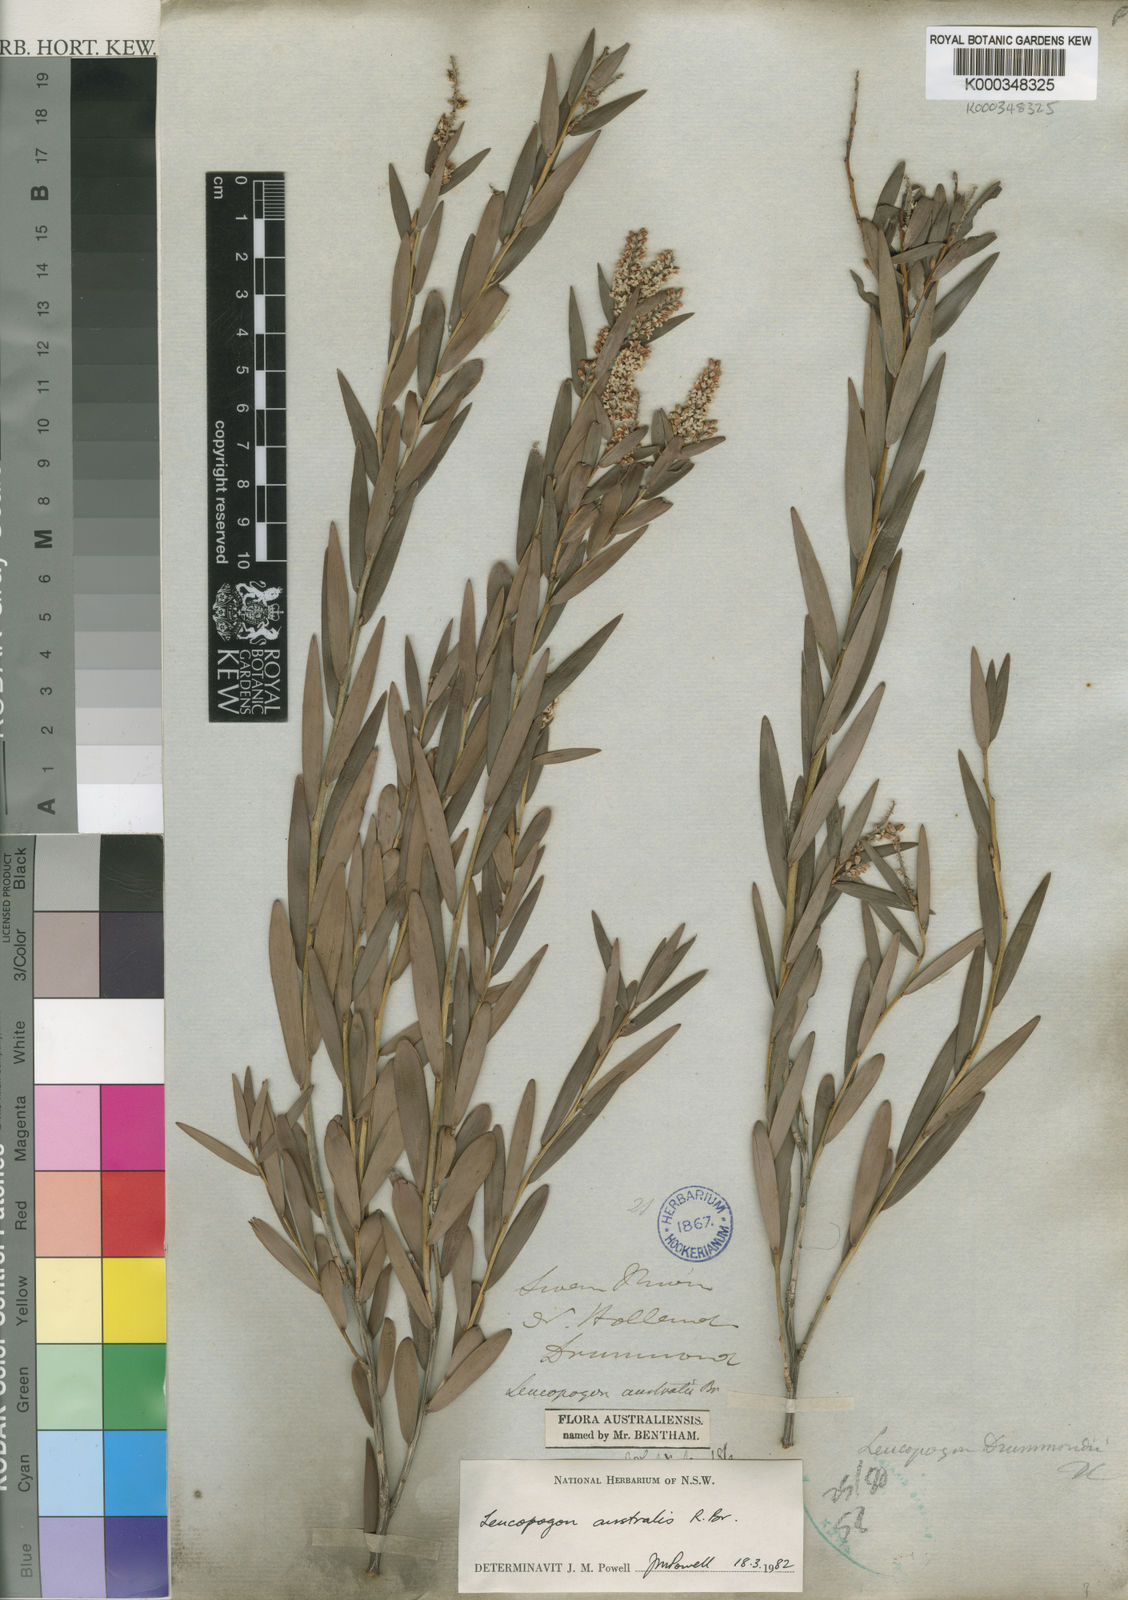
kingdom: Plantae
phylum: Tracheophyta
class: Magnoliopsida
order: Ericales
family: Ericaceae
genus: Leucopogon
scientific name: Leucopogon australis
